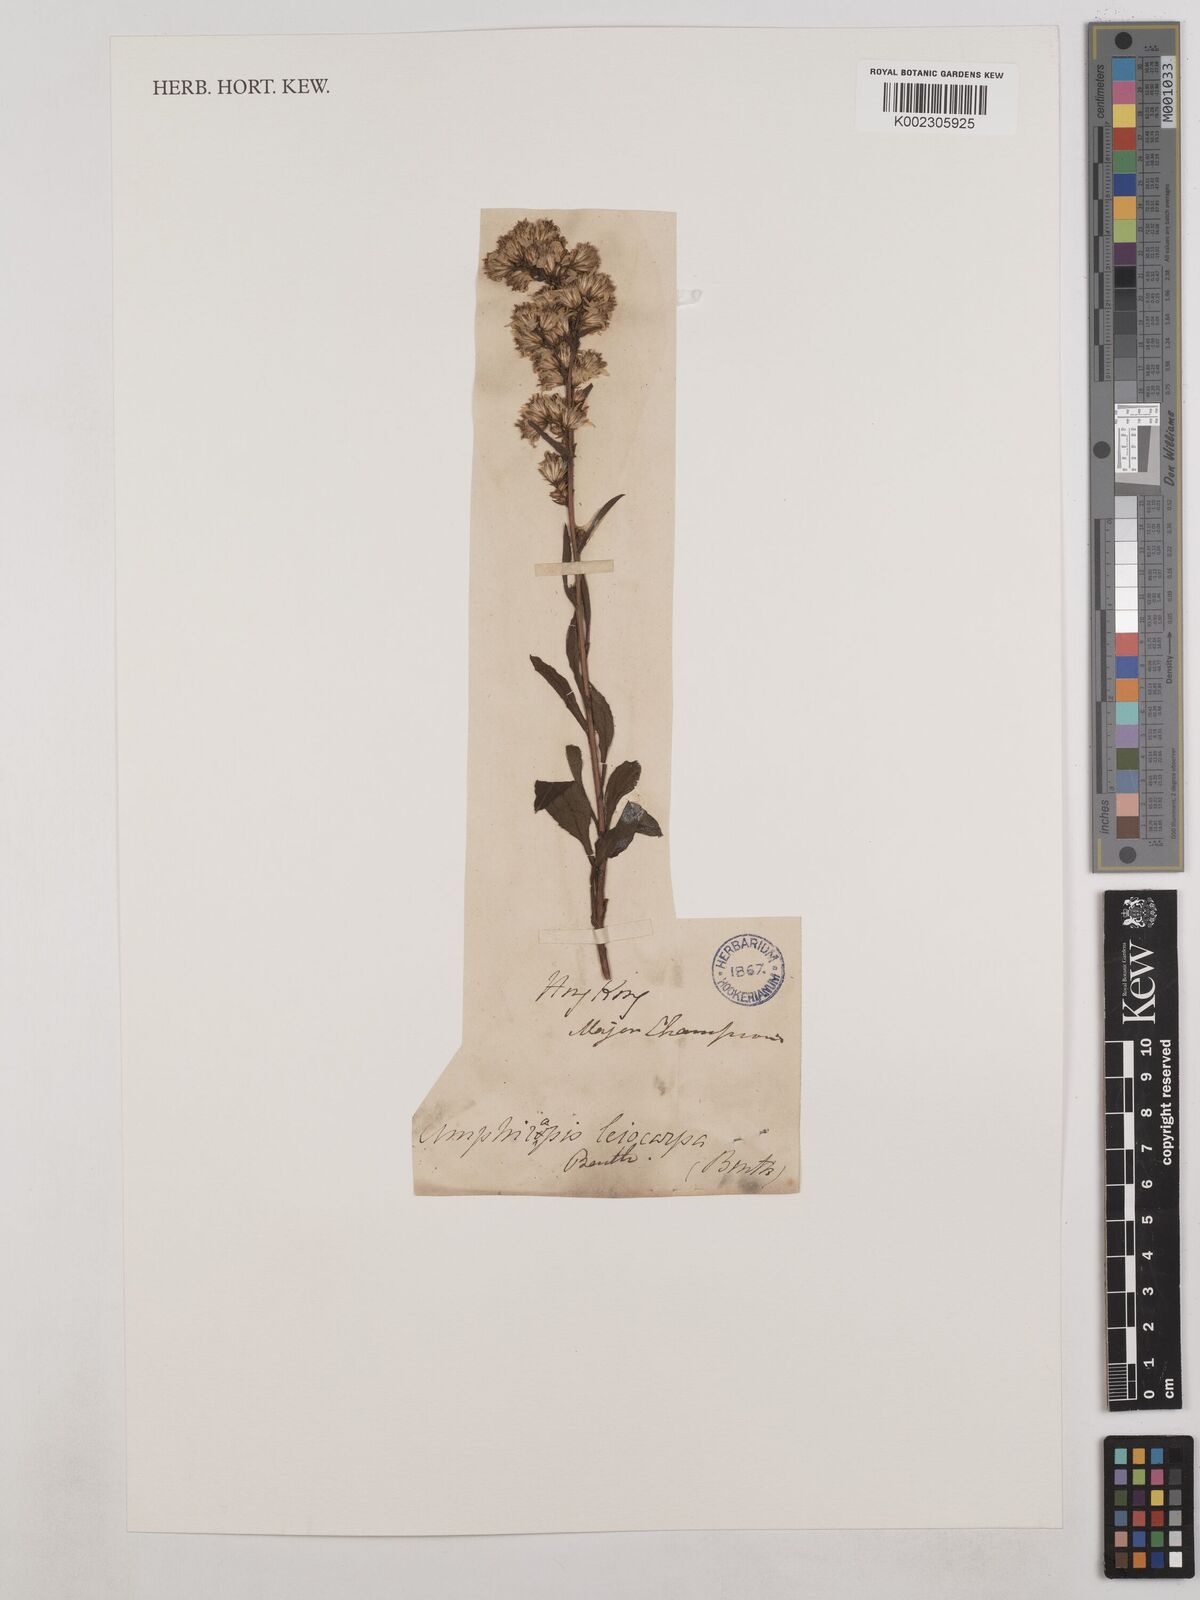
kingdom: Plantae
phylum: Tracheophyta
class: Magnoliopsida
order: Asterales
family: Asteraceae
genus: Solidago
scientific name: Solidago virgaurea
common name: Goldenrod
